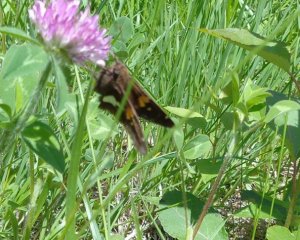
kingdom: Animalia
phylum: Arthropoda
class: Insecta
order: Lepidoptera
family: Hesperiidae
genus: Epargyreus
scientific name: Epargyreus clarus
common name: Silver-spotted Skipper
